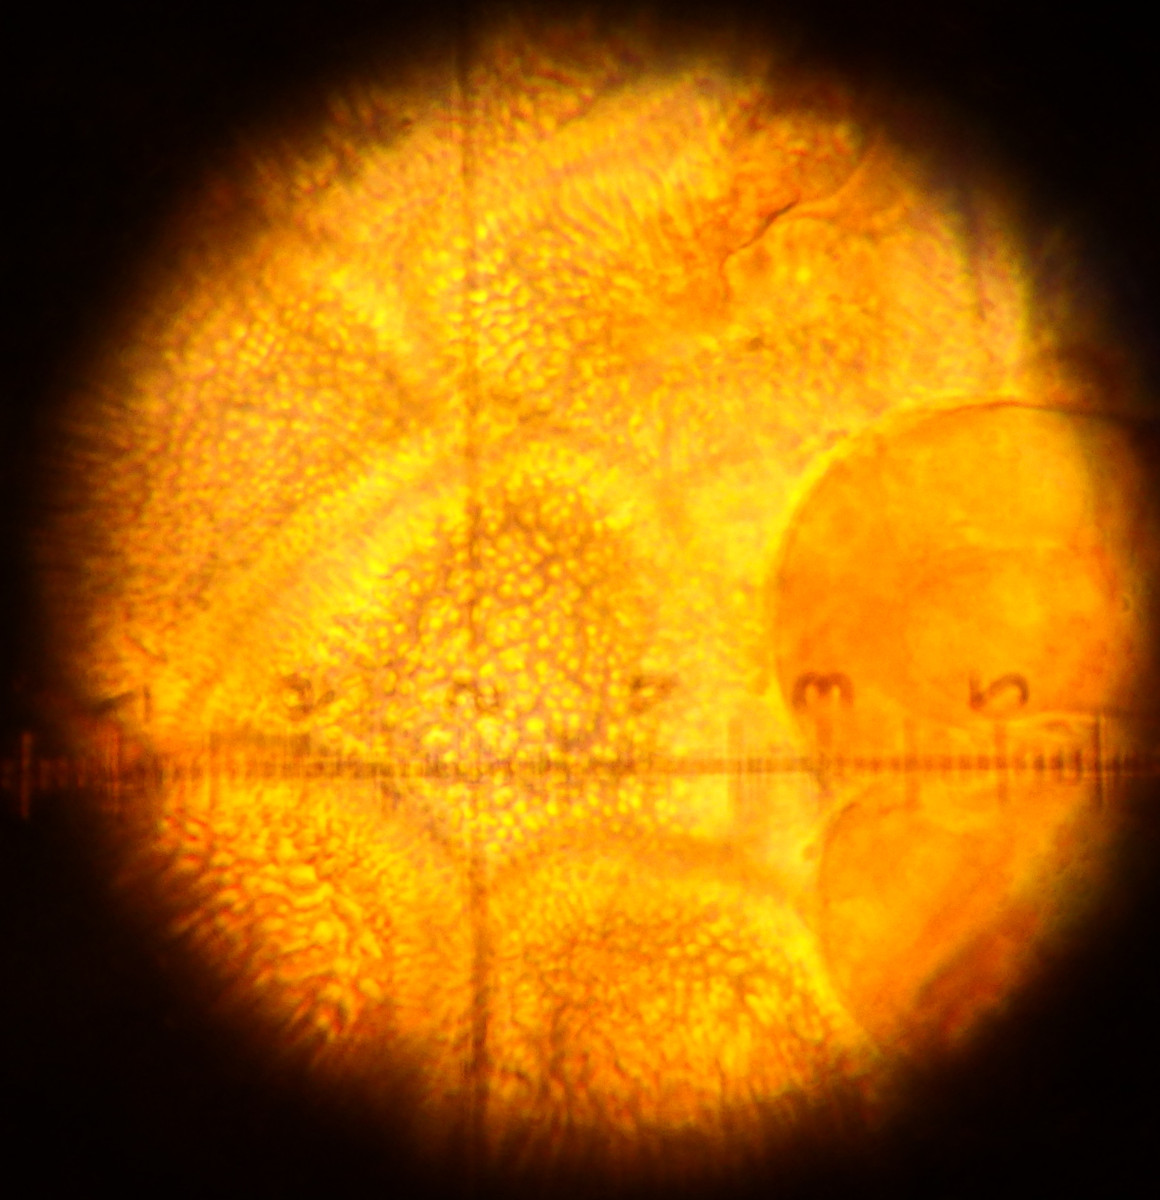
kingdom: Fungi
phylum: Basidiomycota
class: Pucciniomycetes
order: Pucciniales
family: Pucciniaceae
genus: Puccinia
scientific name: Puccinia poarum
